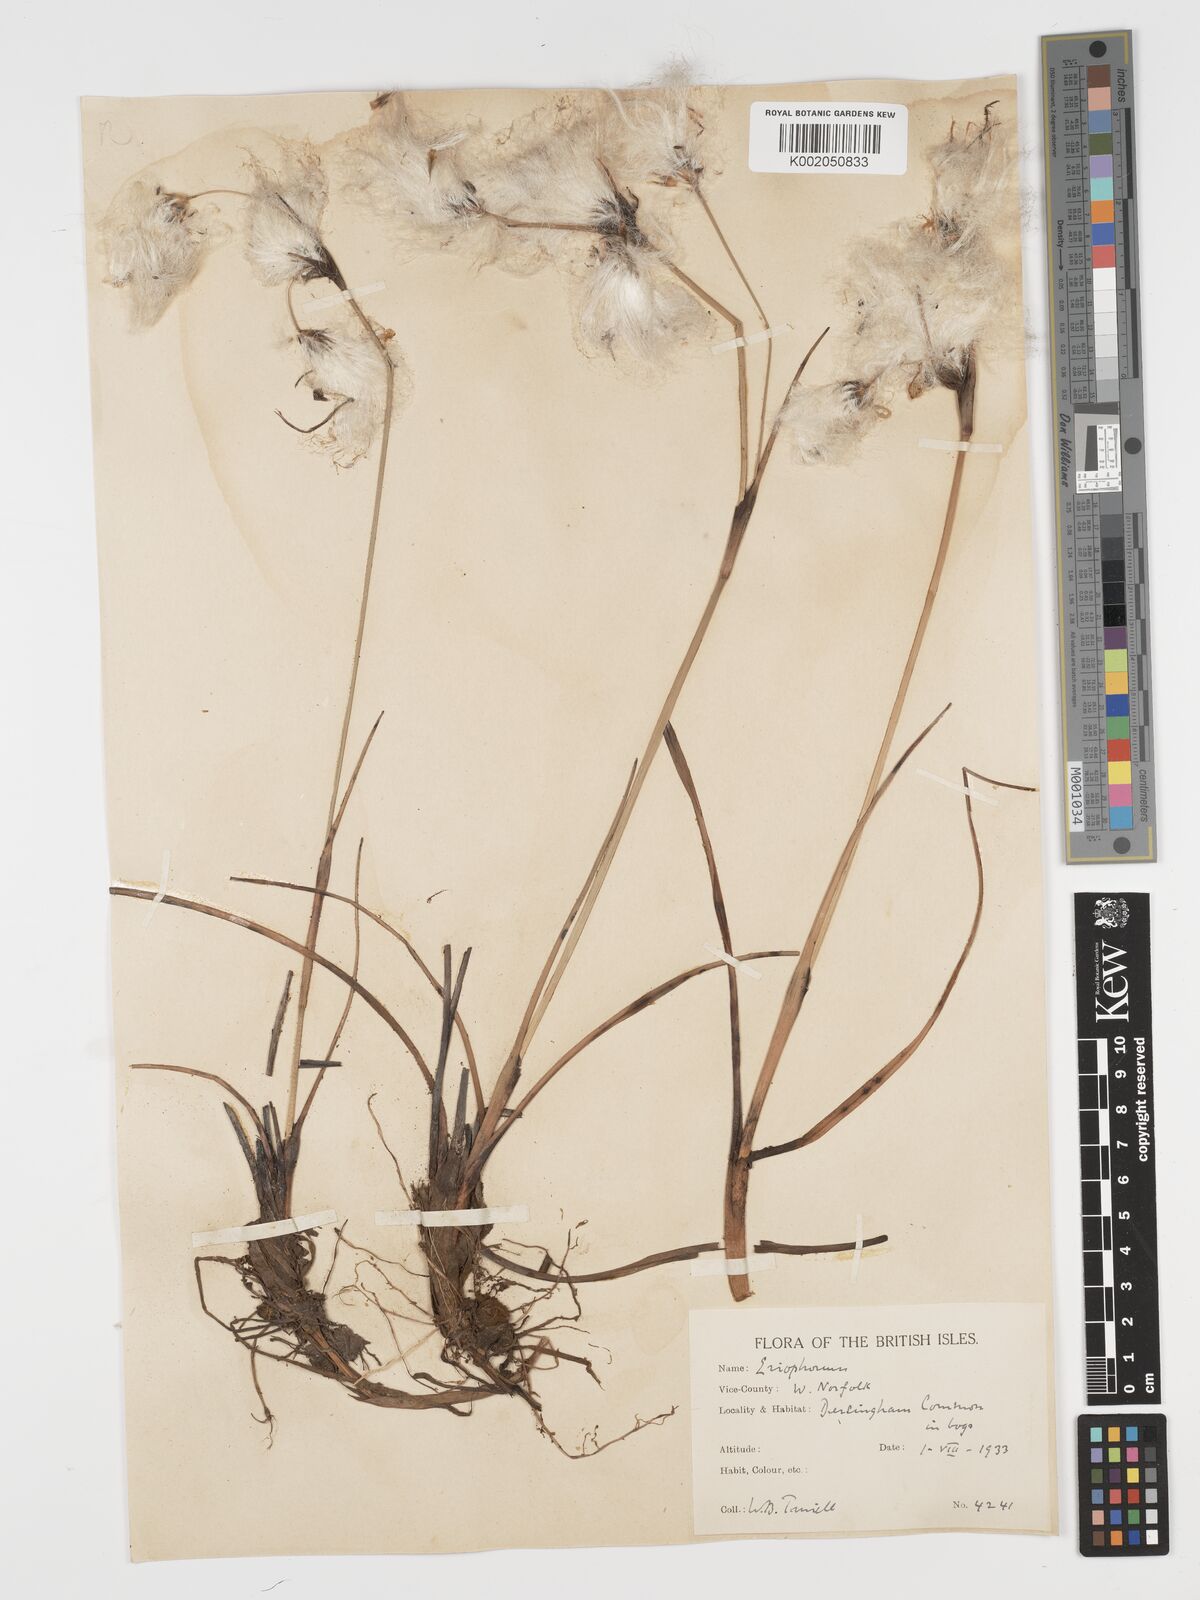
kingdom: Plantae
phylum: Tracheophyta
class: Liliopsida
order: Poales
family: Cyperaceae
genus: Eriophorum
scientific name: Eriophorum angustifolium
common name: Common cottongrass
